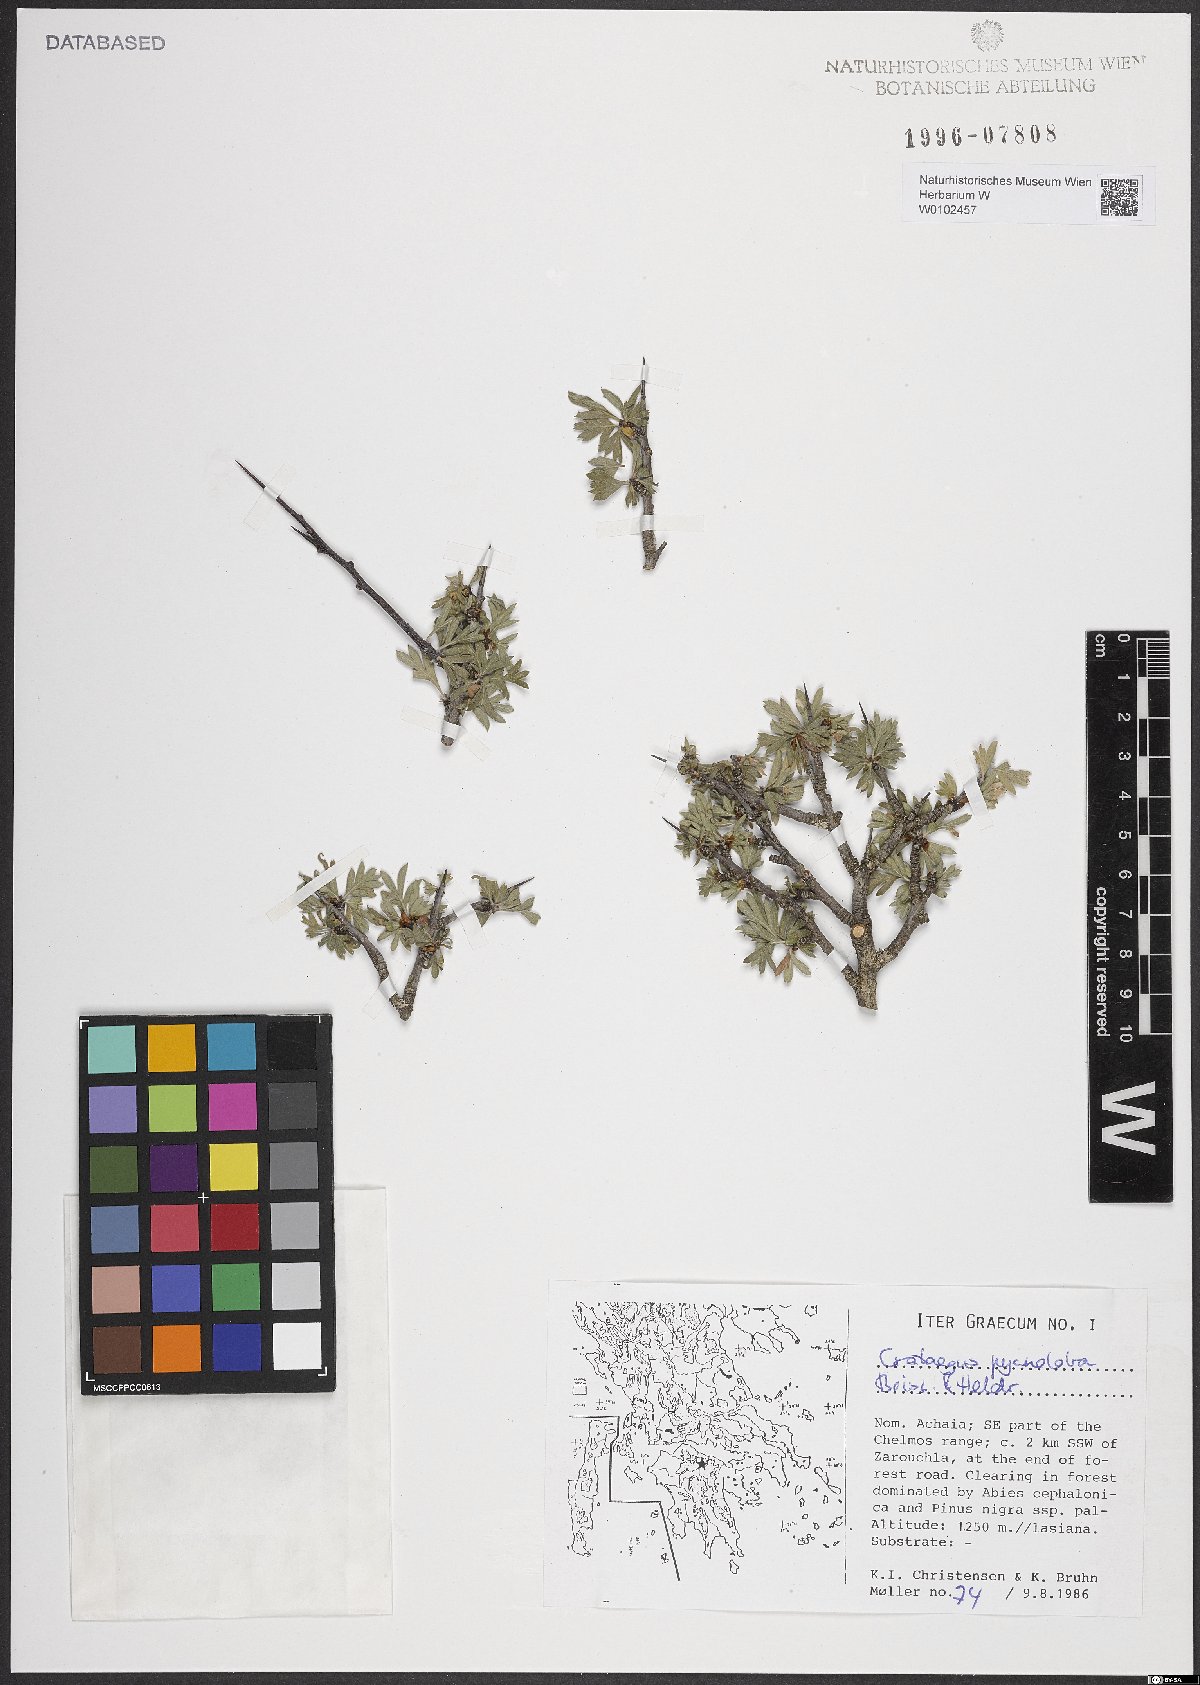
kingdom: Plantae
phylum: Tracheophyta
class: Magnoliopsida
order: Rosales
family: Rosaceae
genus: Crataegus
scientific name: Crataegus pycnoloba
